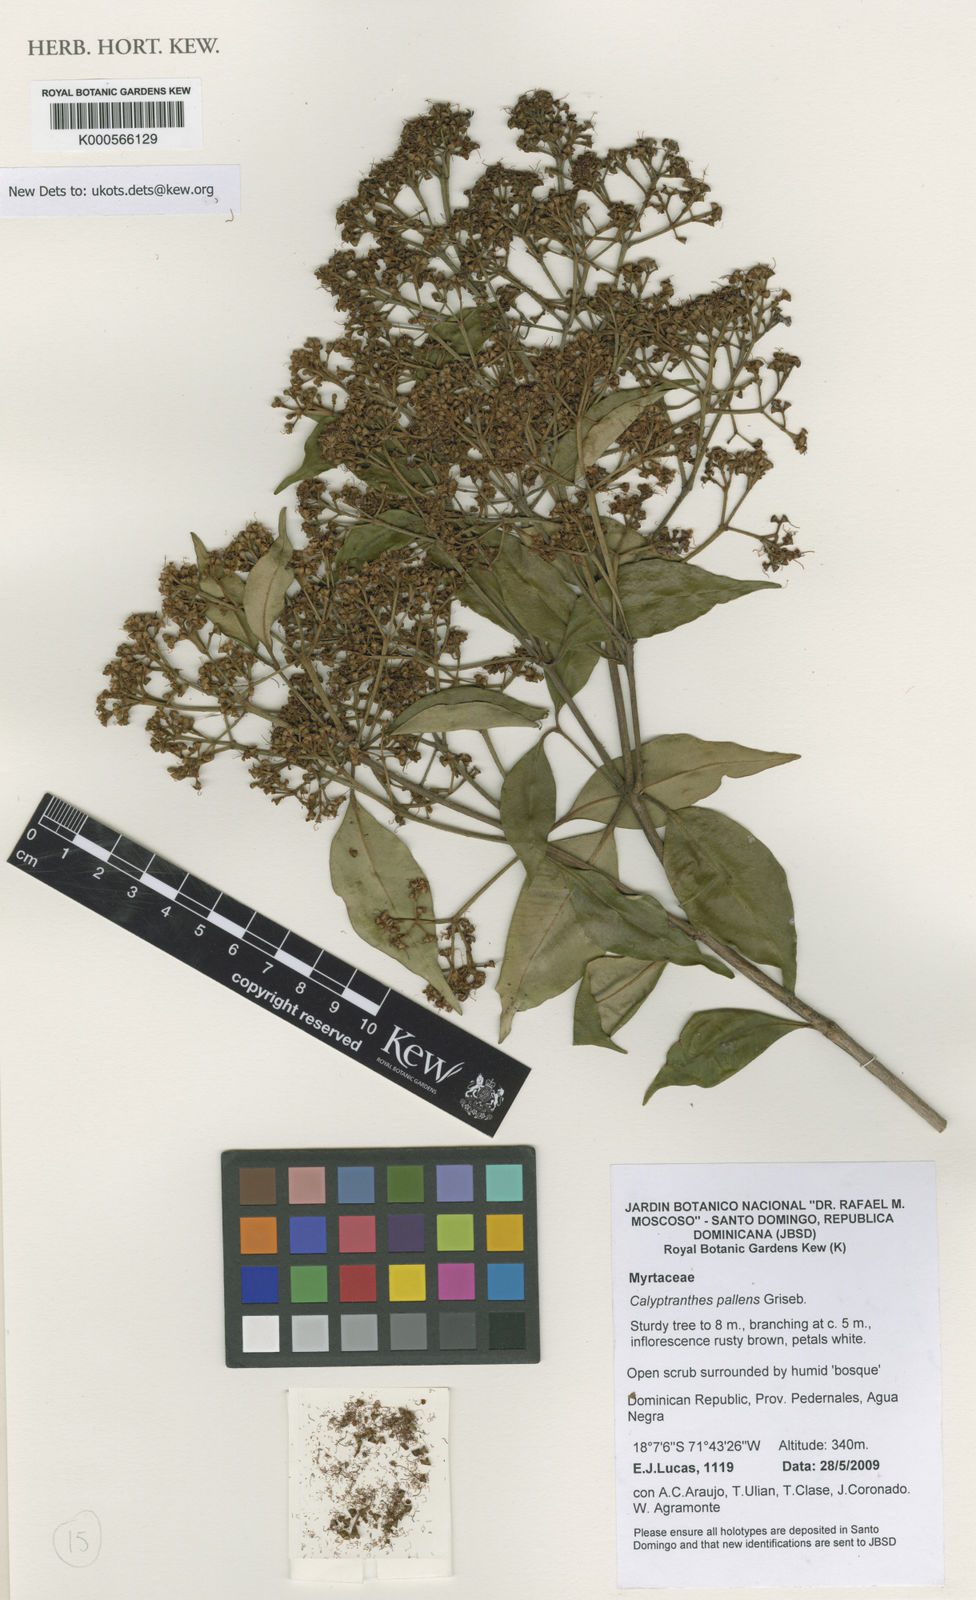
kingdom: Plantae
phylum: Tracheophyta
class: Magnoliopsida
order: Myrtales
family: Myrtaceae
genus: Myrcia
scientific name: Myrcia neopallens
